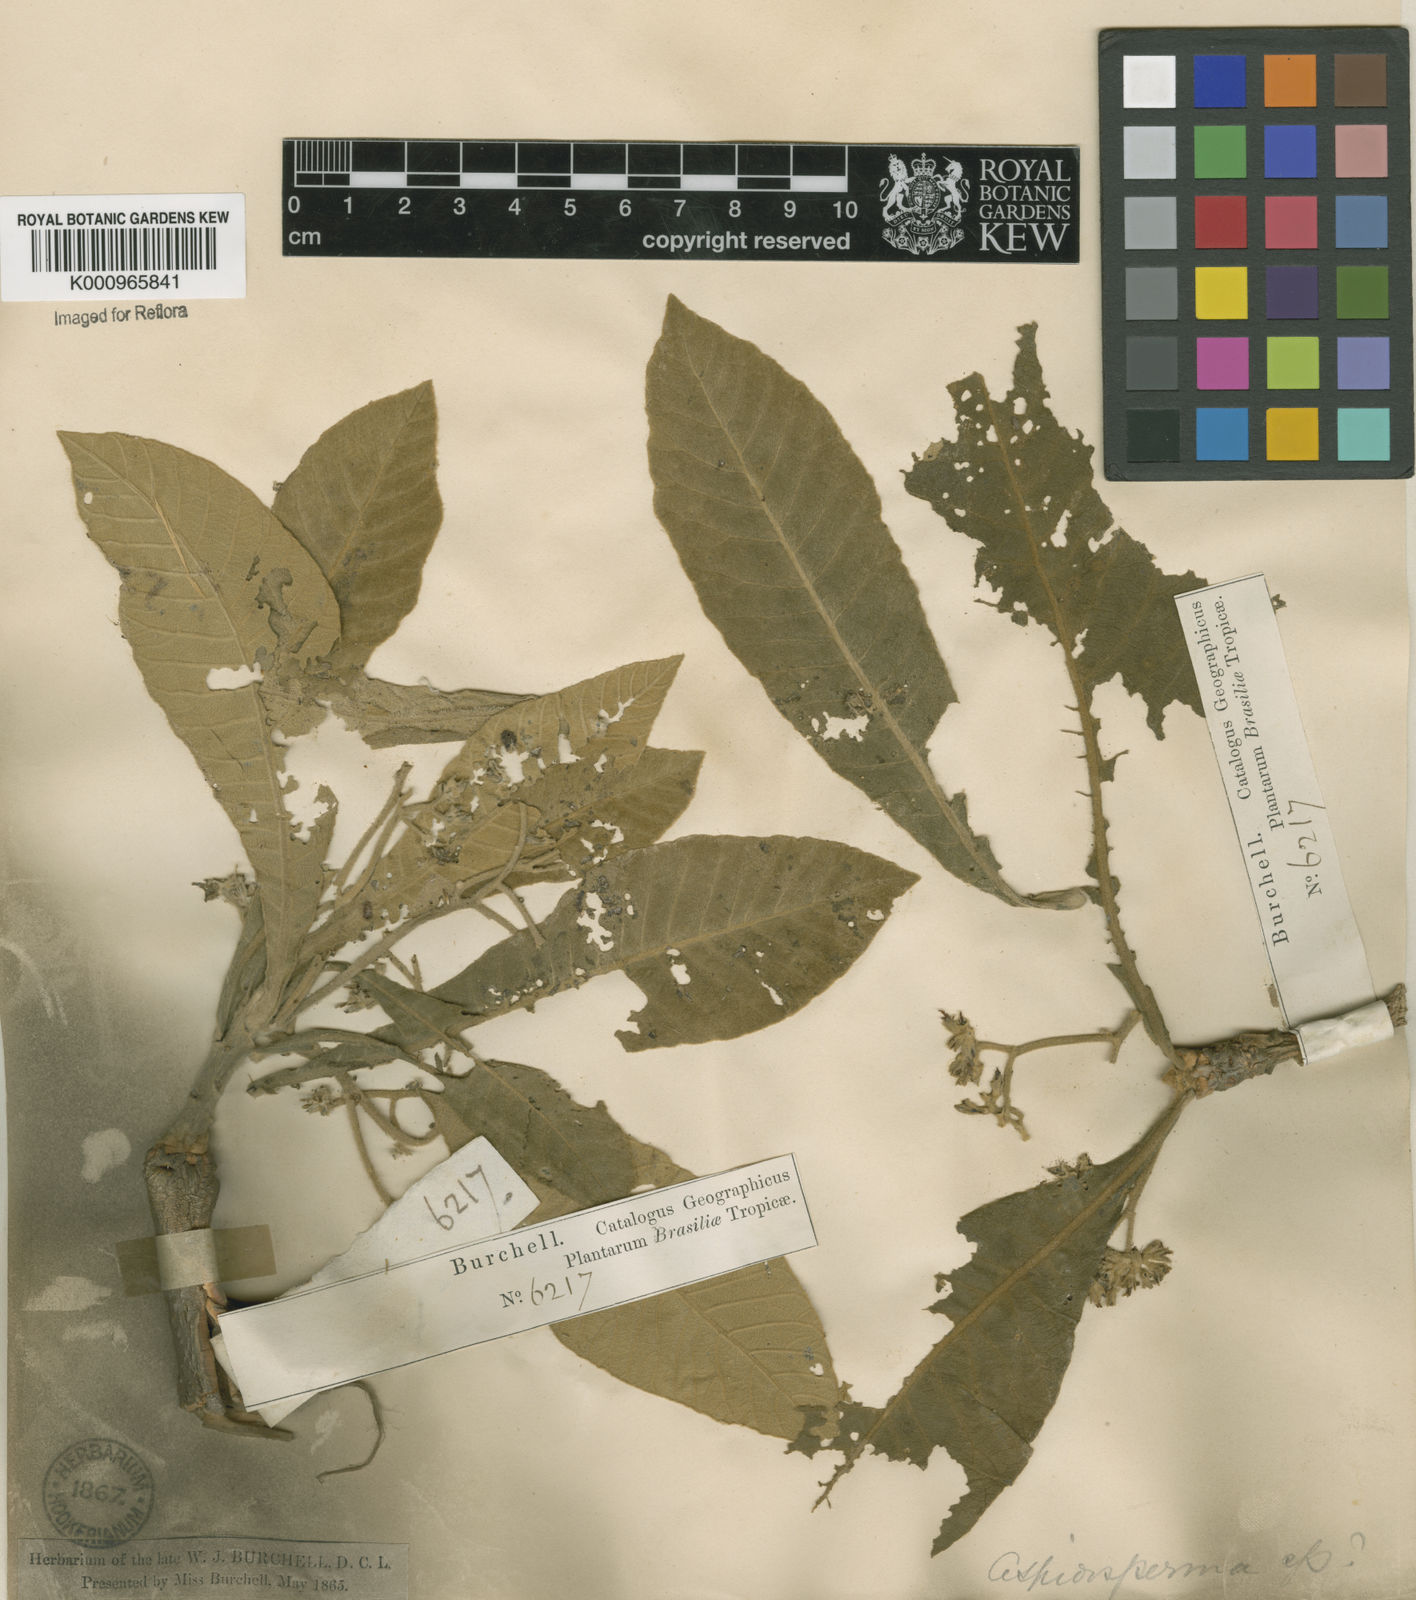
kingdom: Plantae
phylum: Tracheophyta
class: Magnoliopsida
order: Gentianales
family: Apocynaceae
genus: Aspidosperma
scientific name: Aspidosperma tomentosum
